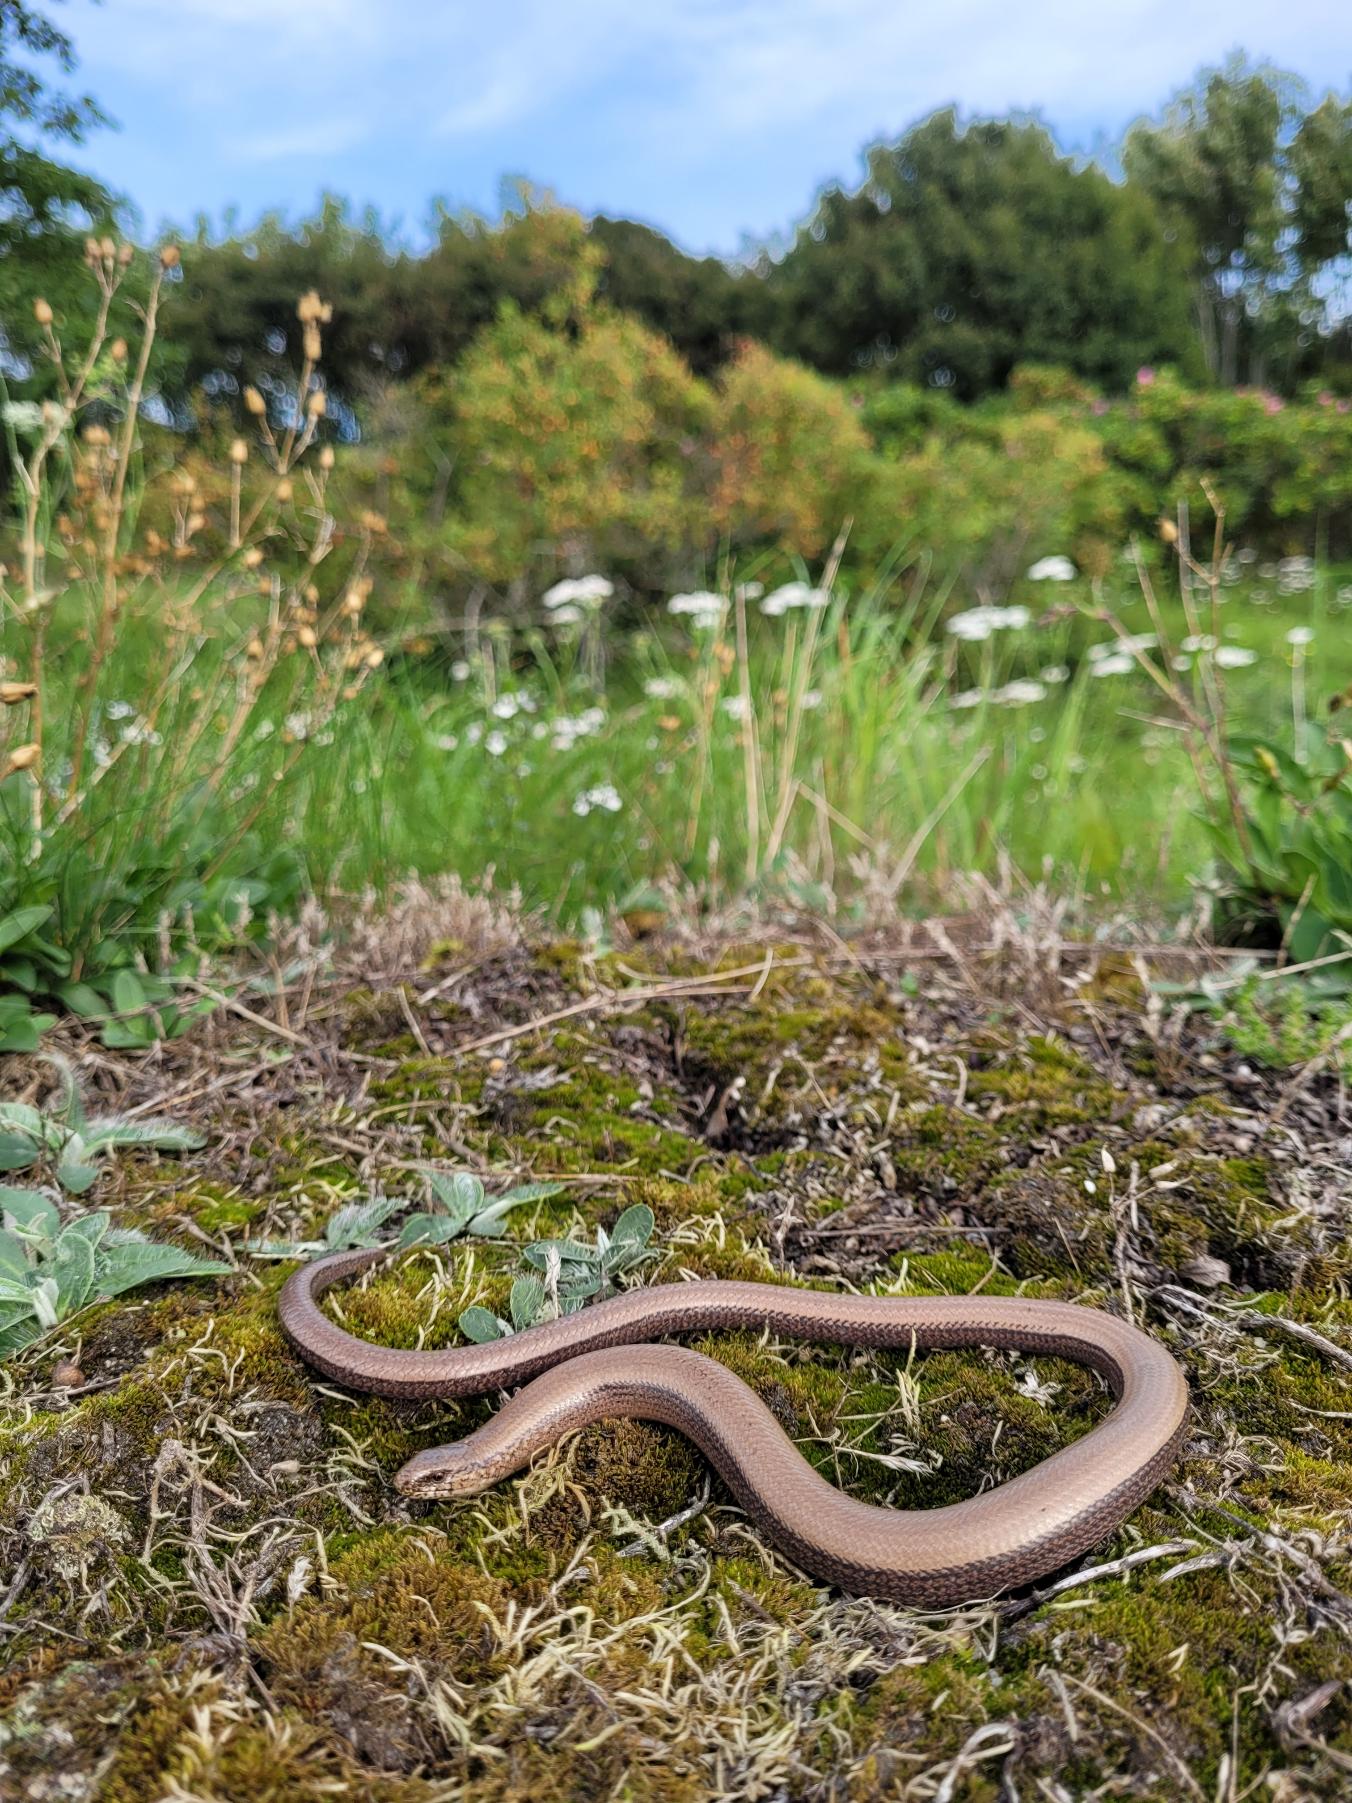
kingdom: Animalia
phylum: Chordata
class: Squamata
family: Anguidae
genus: Anguis
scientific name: Anguis fragilis
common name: Stålorm
